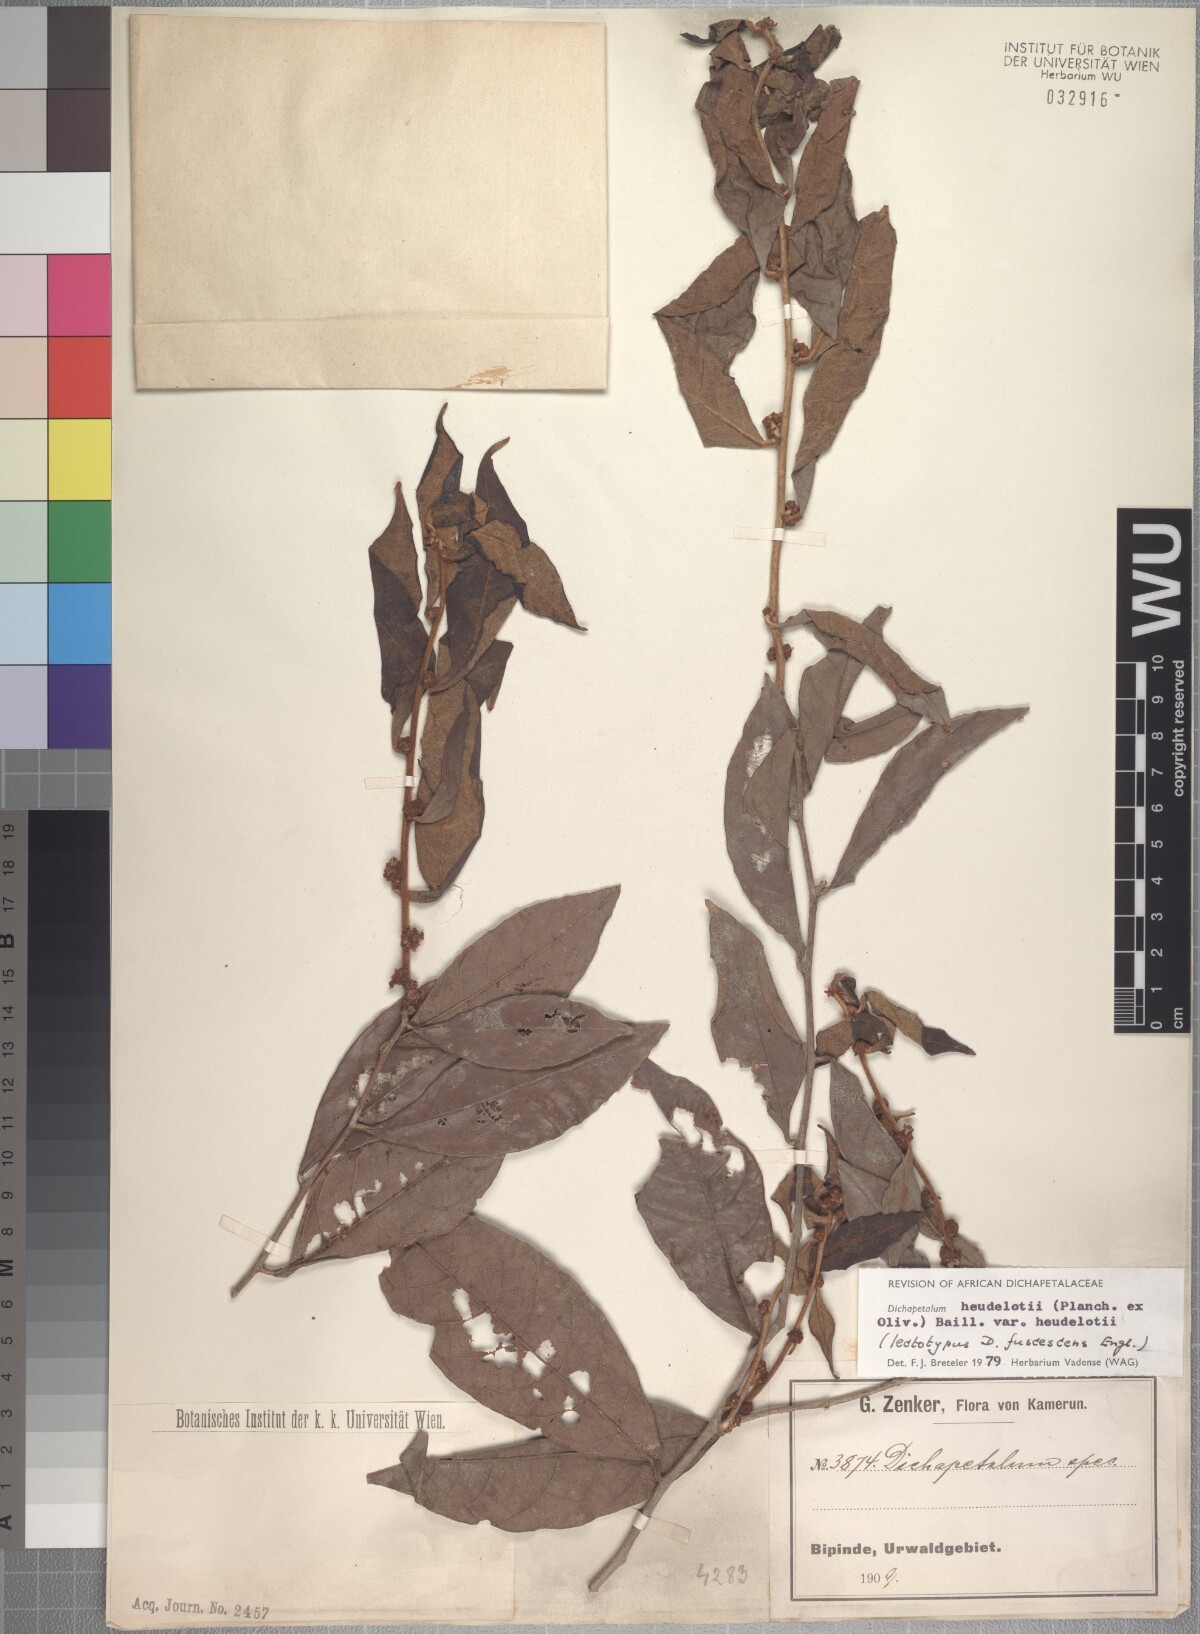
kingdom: Plantae
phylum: Tracheophyta
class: Magnoliopsida
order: Malpighiales
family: Dichapetalaceae
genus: Dichapetalum
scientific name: Dichapetalum heudelotii
